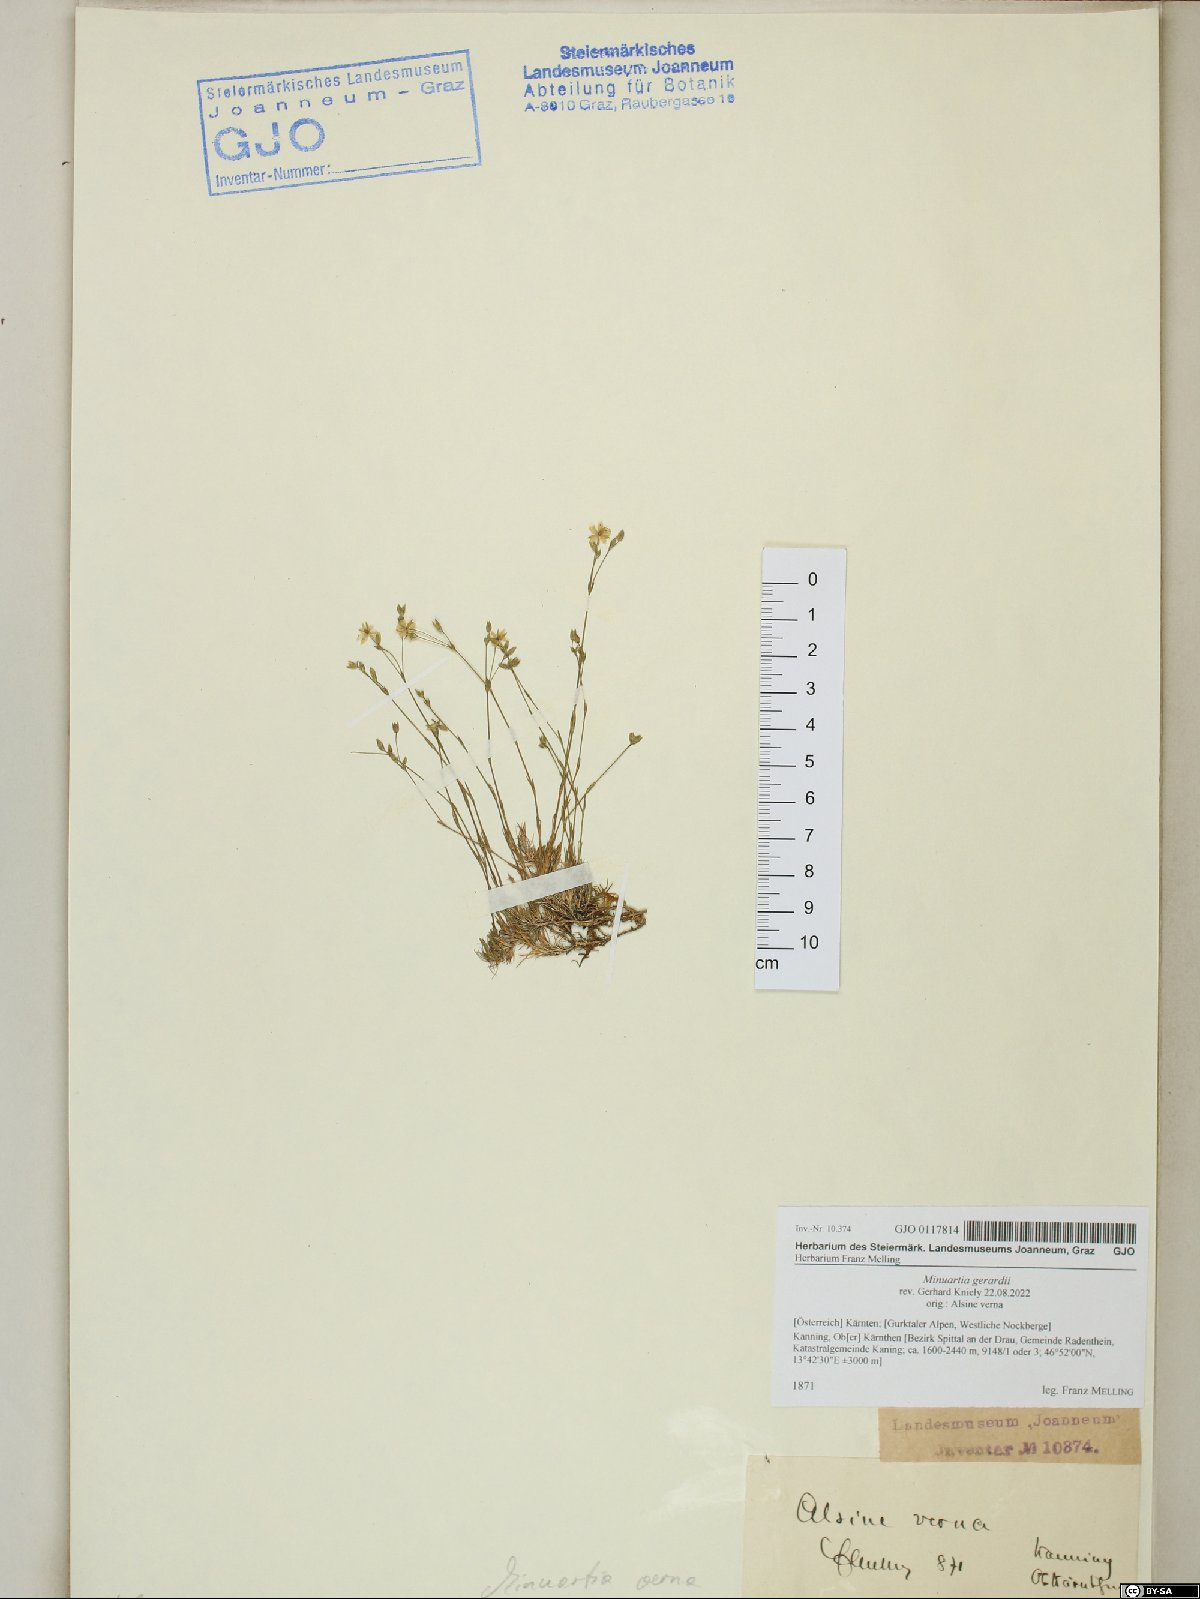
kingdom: Plantae
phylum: Tracheophyta
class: Magnoliopsida
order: Caryophyllales
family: Caryophyllaceae
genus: Sabulina
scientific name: Sabulina verna
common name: Spring sandwort
